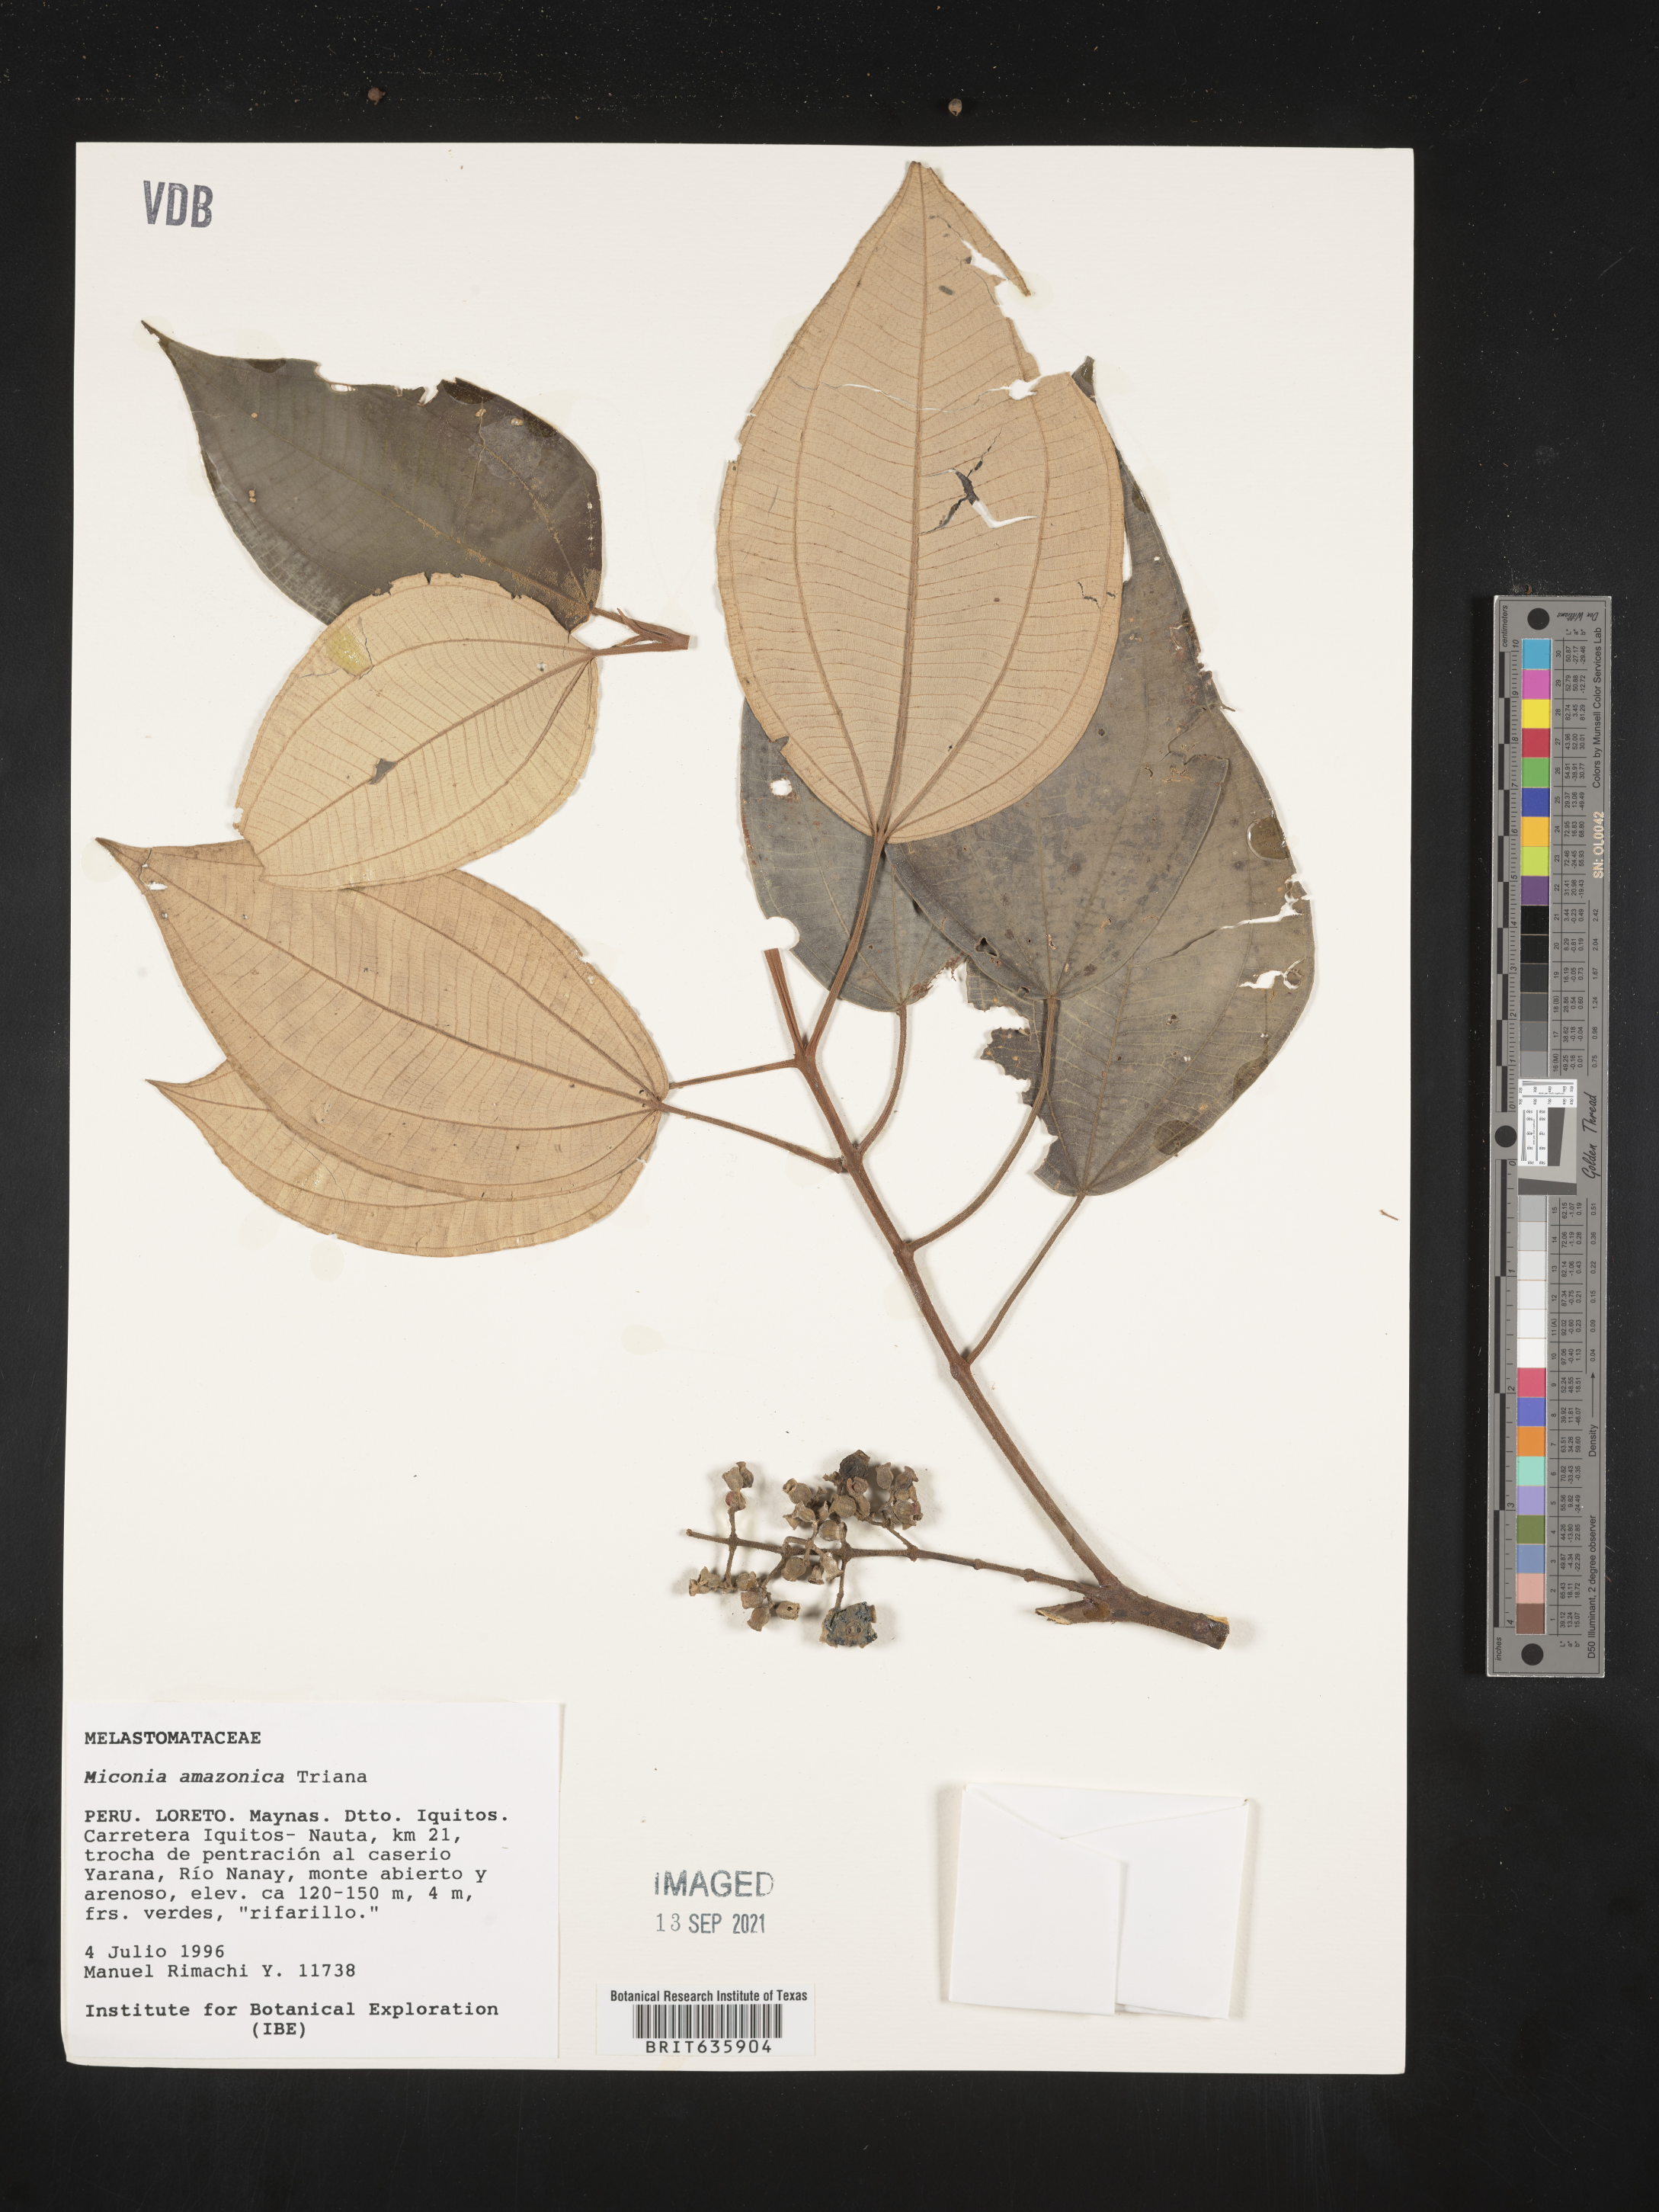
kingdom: Plantae
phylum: Tracheophyta
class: Magnoliopsida
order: Myrtales
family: Melastomataceae
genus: Miconia
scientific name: Miconia
